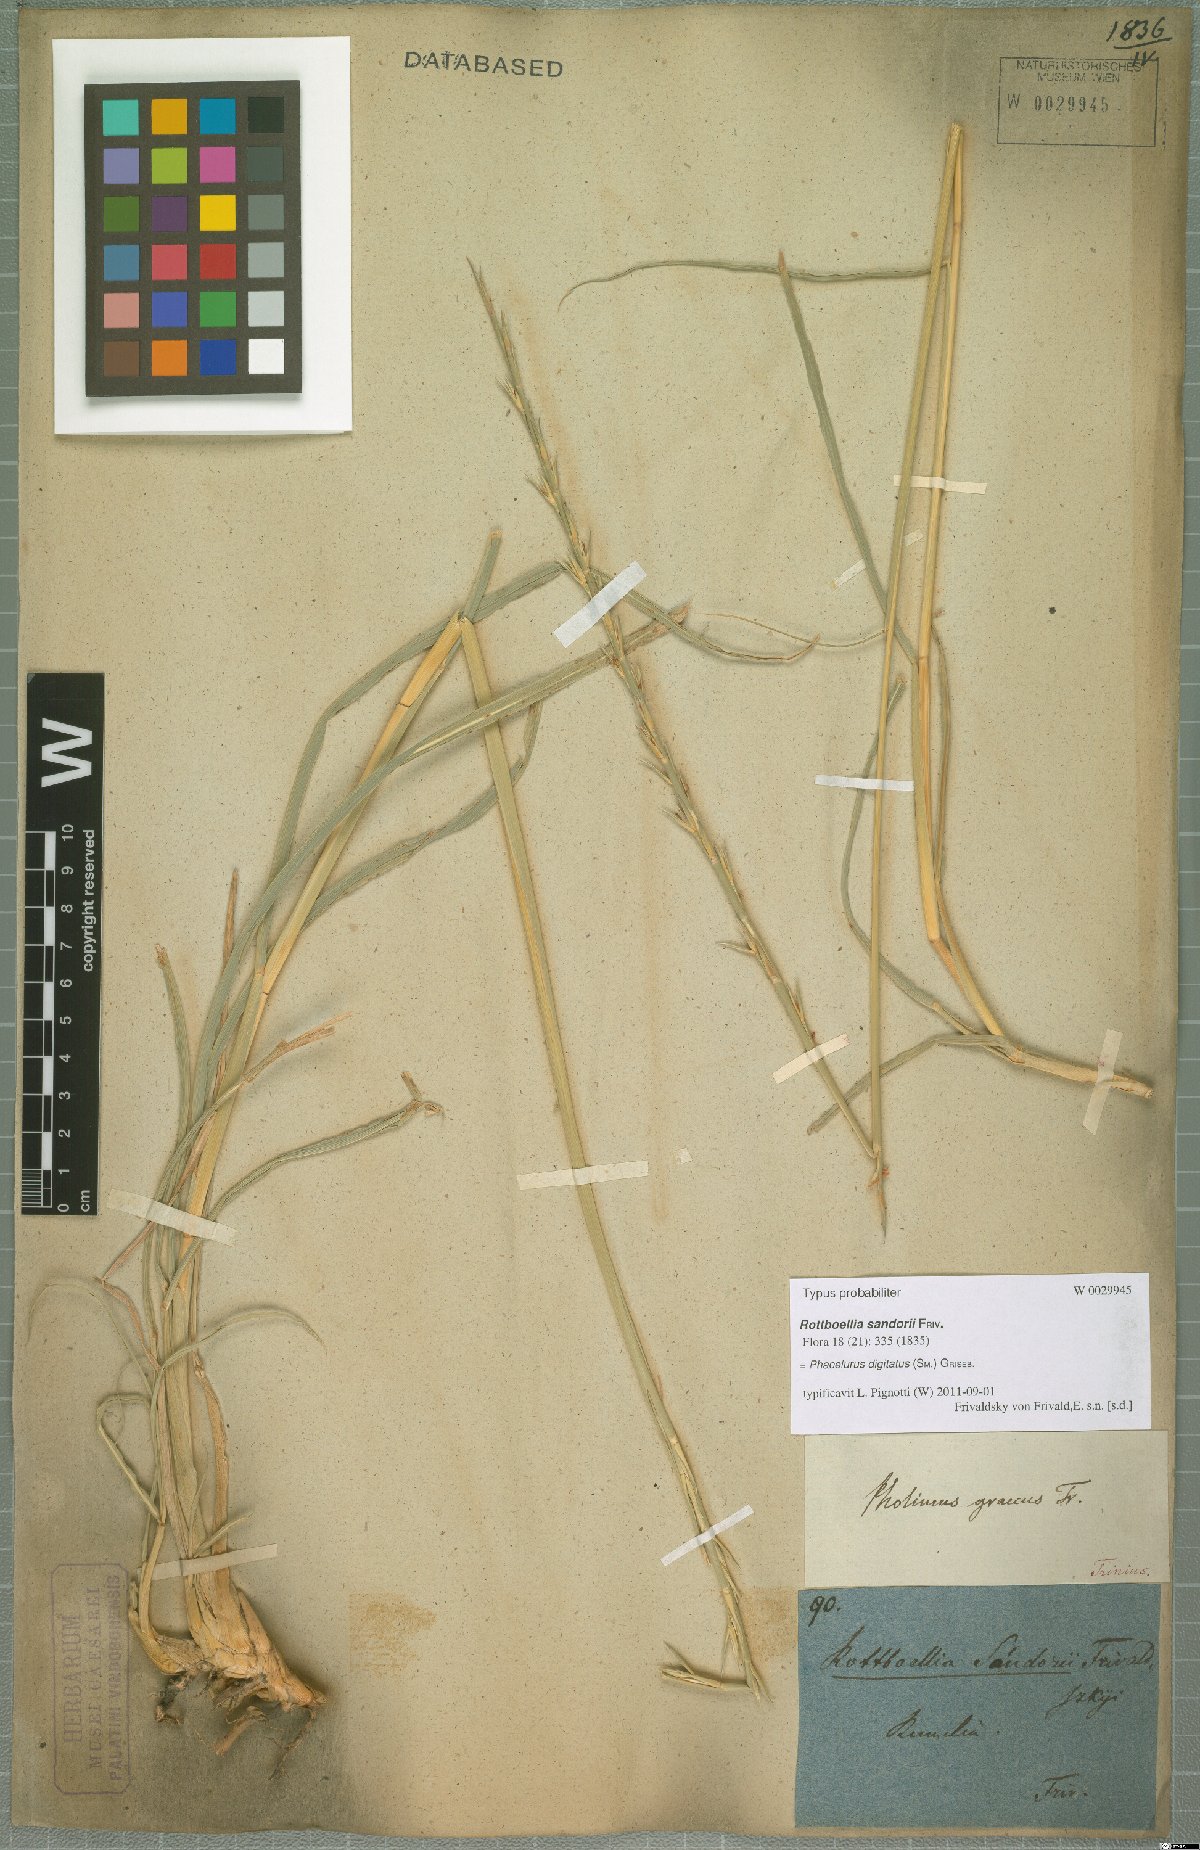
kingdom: Plantae
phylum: Tracheophyta
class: Liliopsida
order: Poales
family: Poaceae
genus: Phacelurus
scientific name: Phacelurus digitatus
